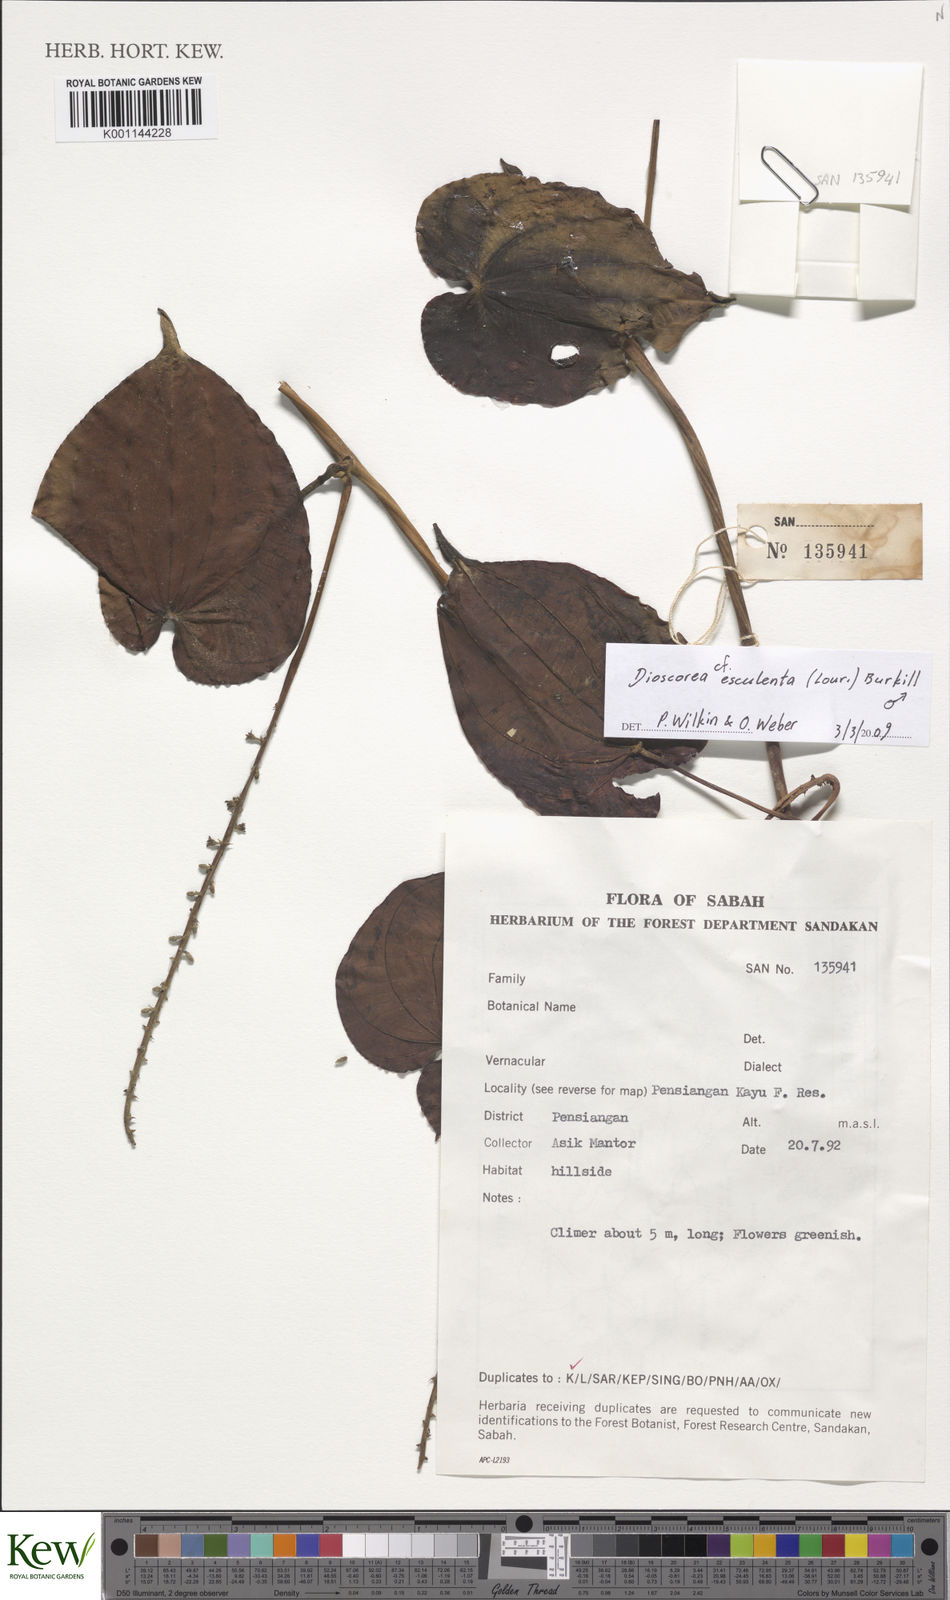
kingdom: Plantae
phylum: Tracheophyta
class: Liliopsida
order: Dioscoreales
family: Dioscoreaceae
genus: Dioscorea
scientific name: Dioscorea esculenta
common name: Chinese yam
